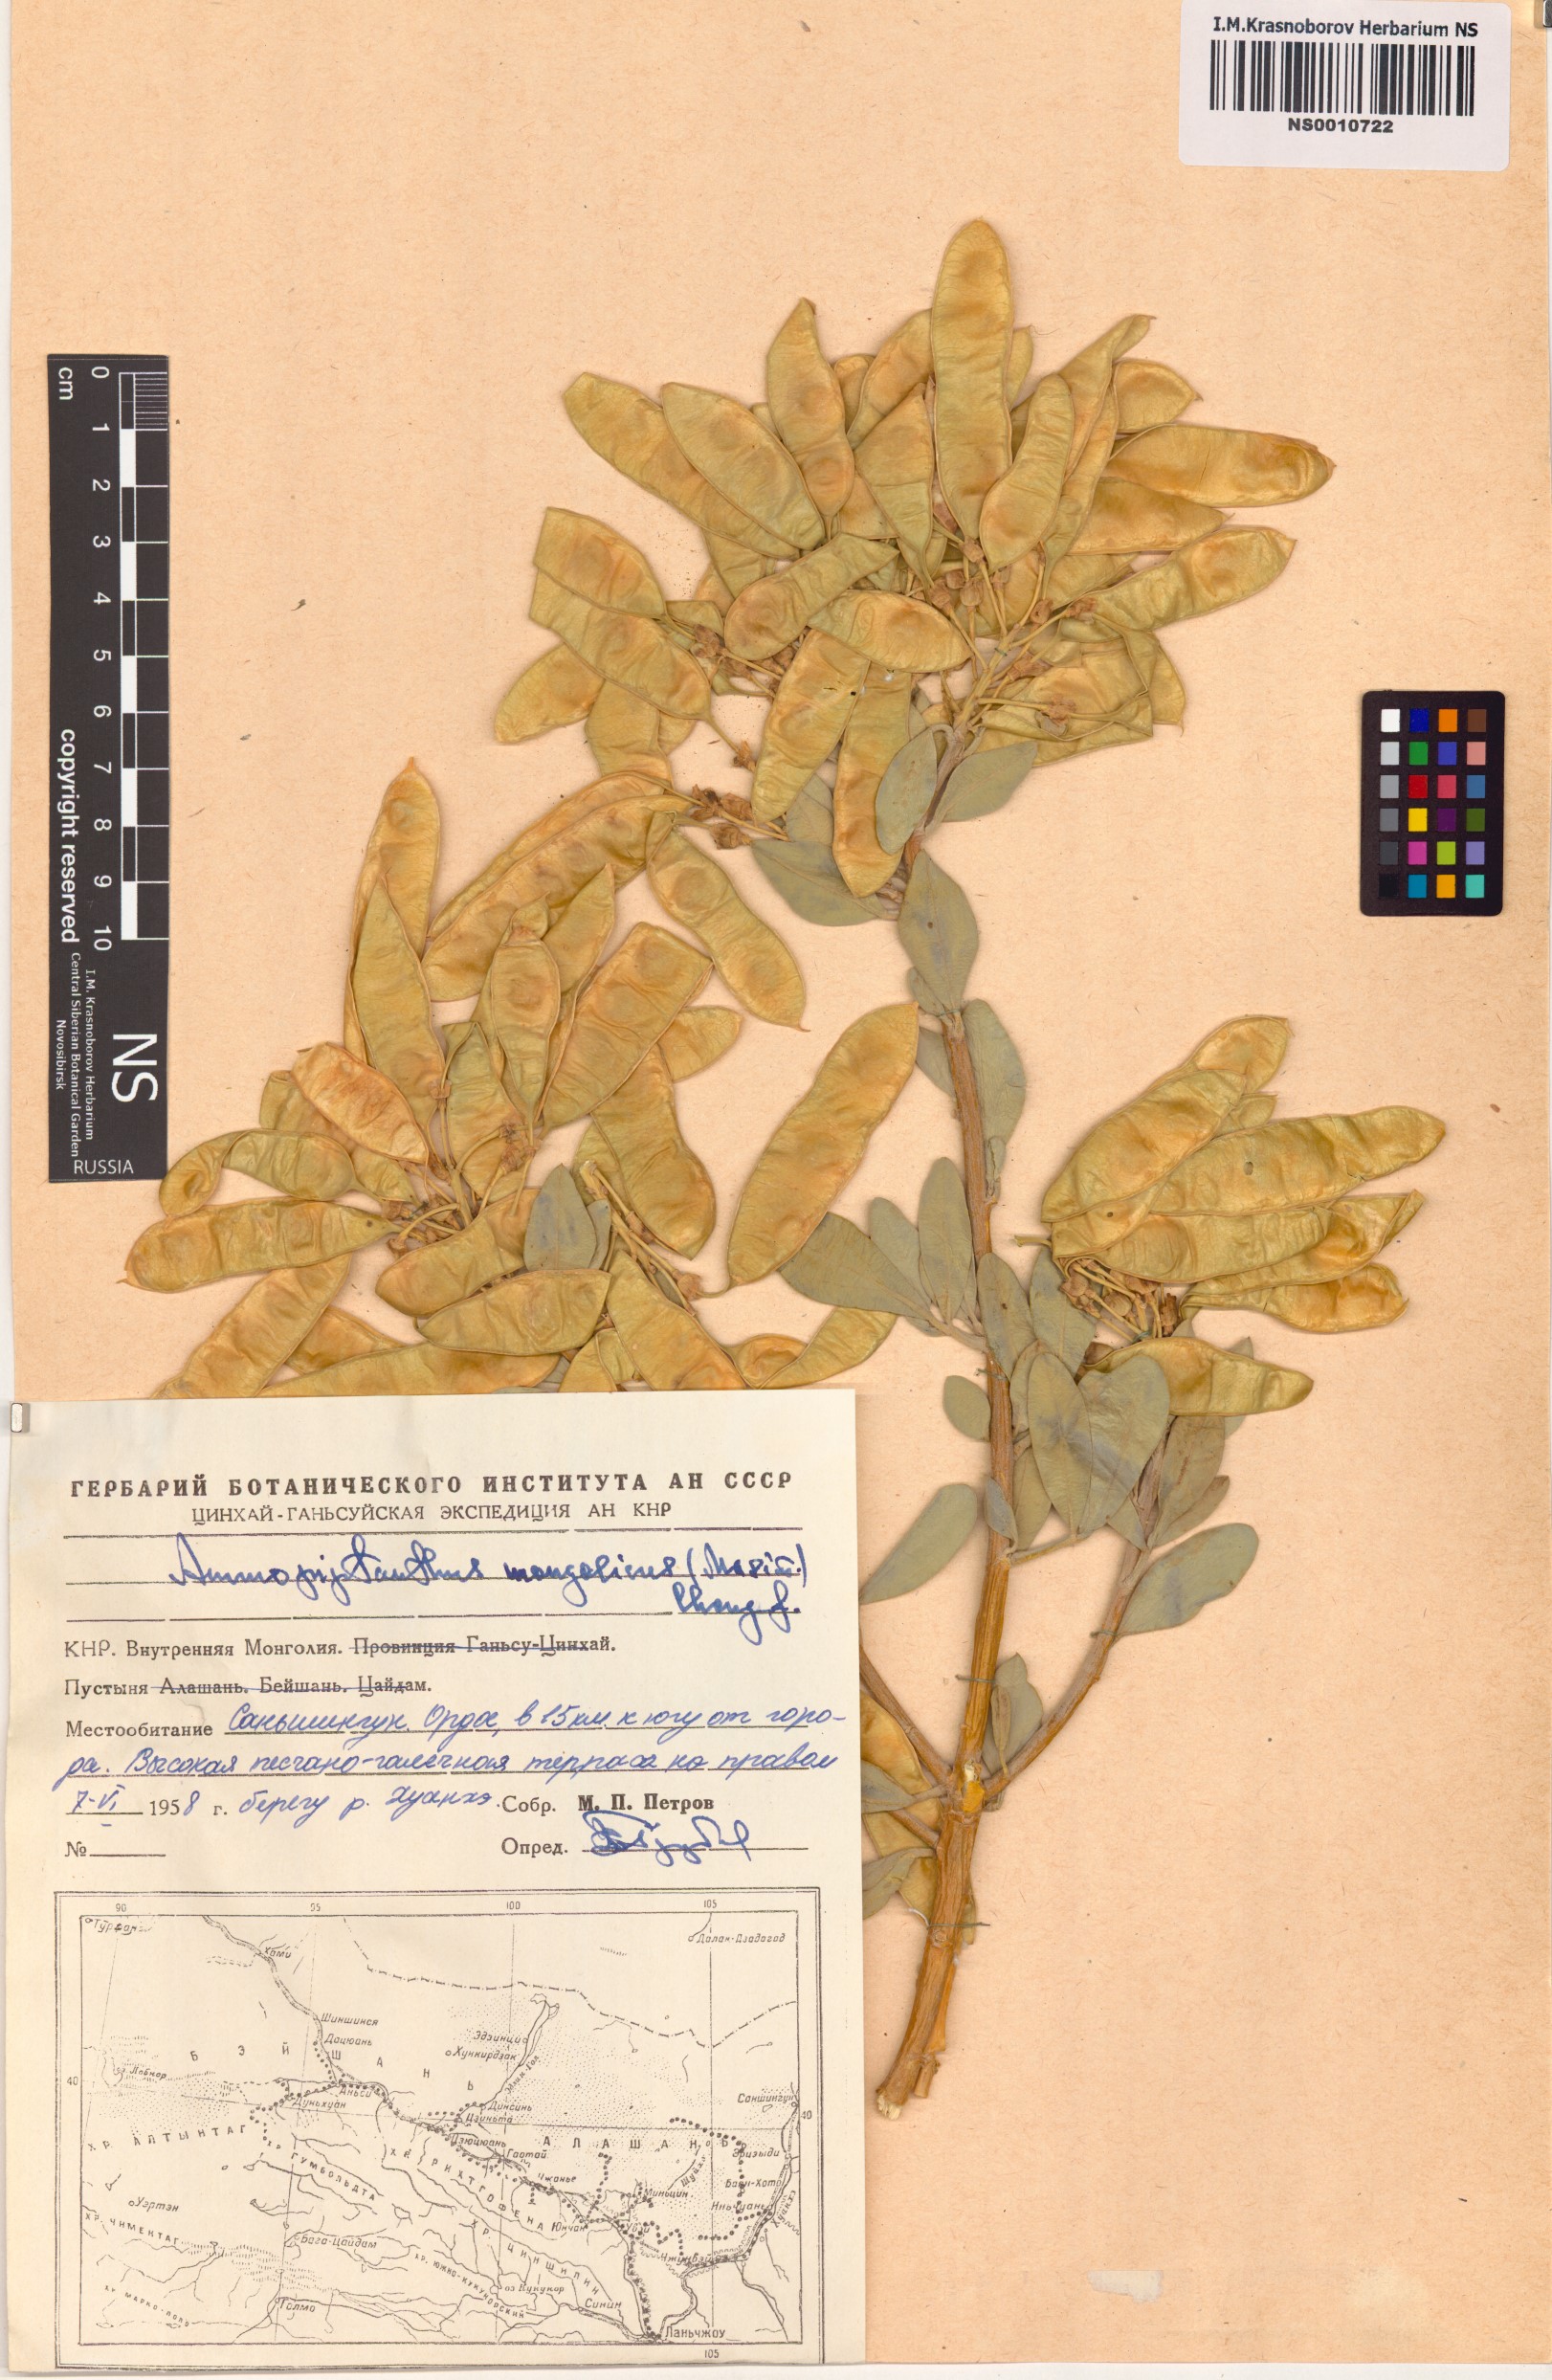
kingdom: Plantae
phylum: Tracheophyta
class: Magnoliopsida
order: Fabales
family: Fabaceae
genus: Ammopiptanthus
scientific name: Ammopiptanthus mongolicus
